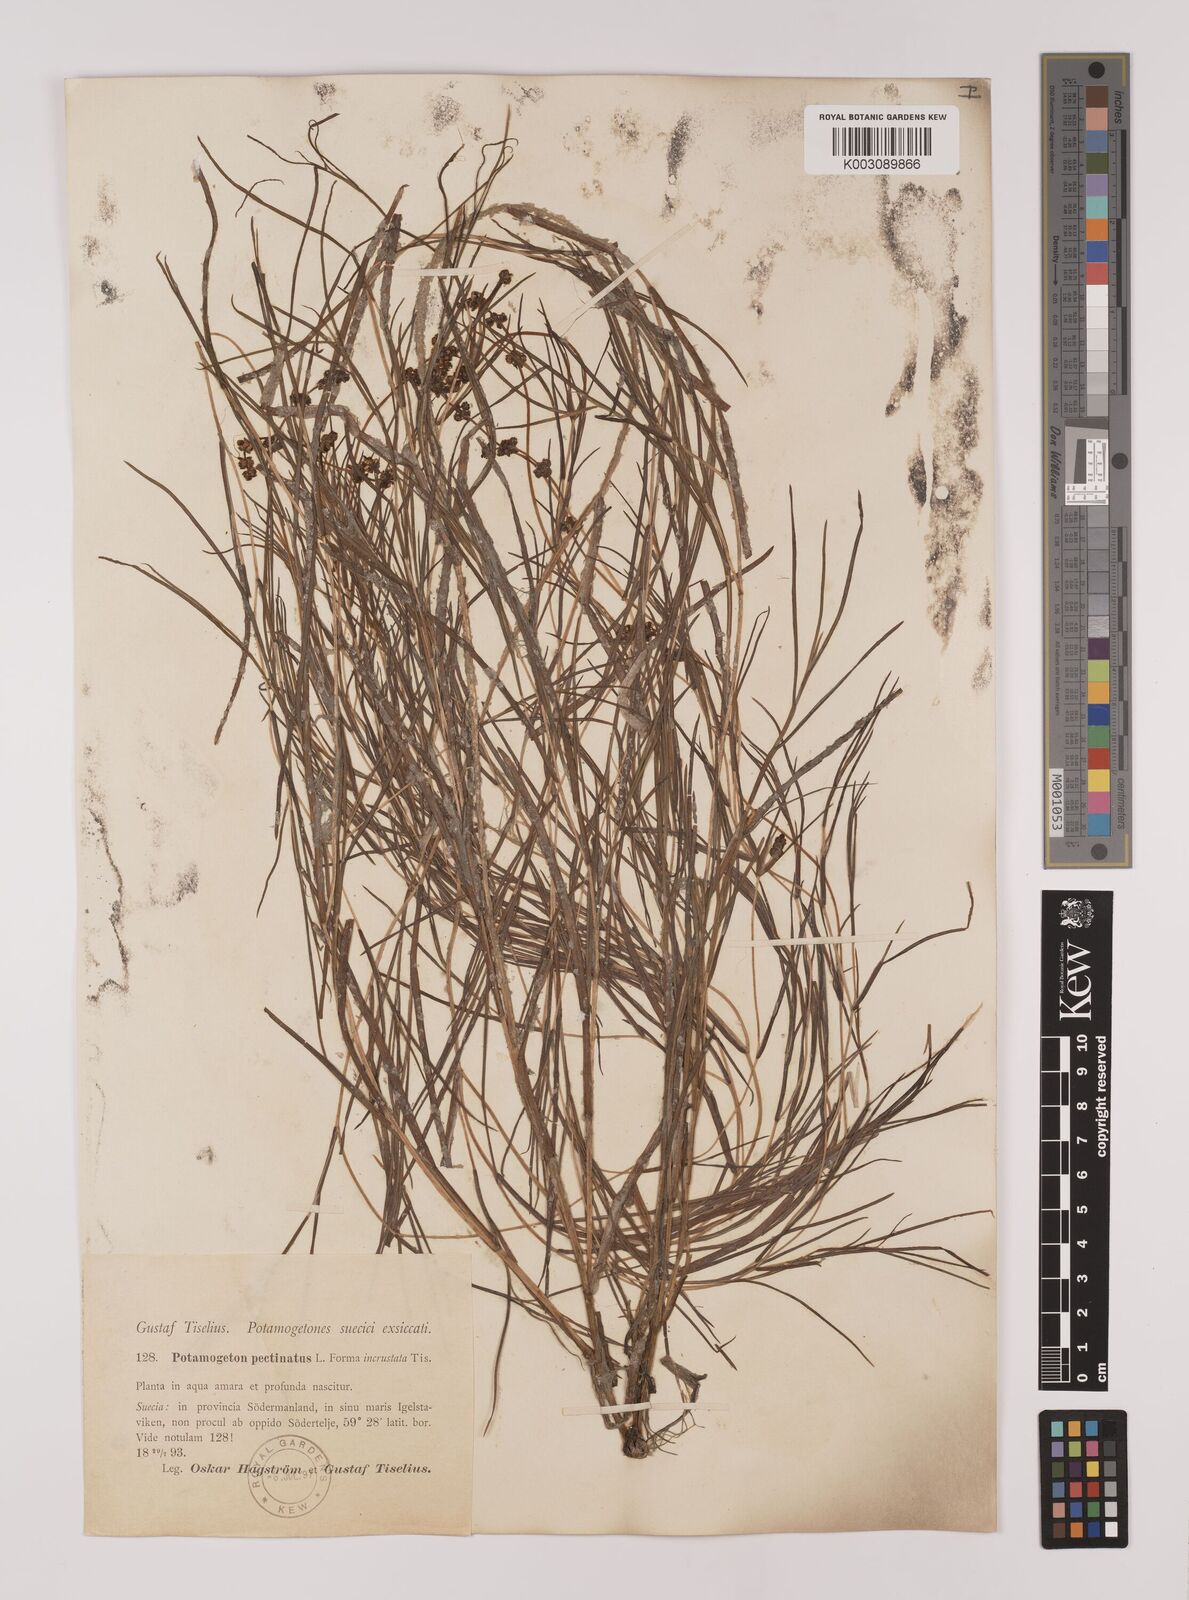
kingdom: Plantae
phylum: Tracheophyta
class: Liliopsida
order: Alismatales
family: Potamogetonaceae
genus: Stuckenia
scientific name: Stuckenia pectinata
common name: Sago pondweed
